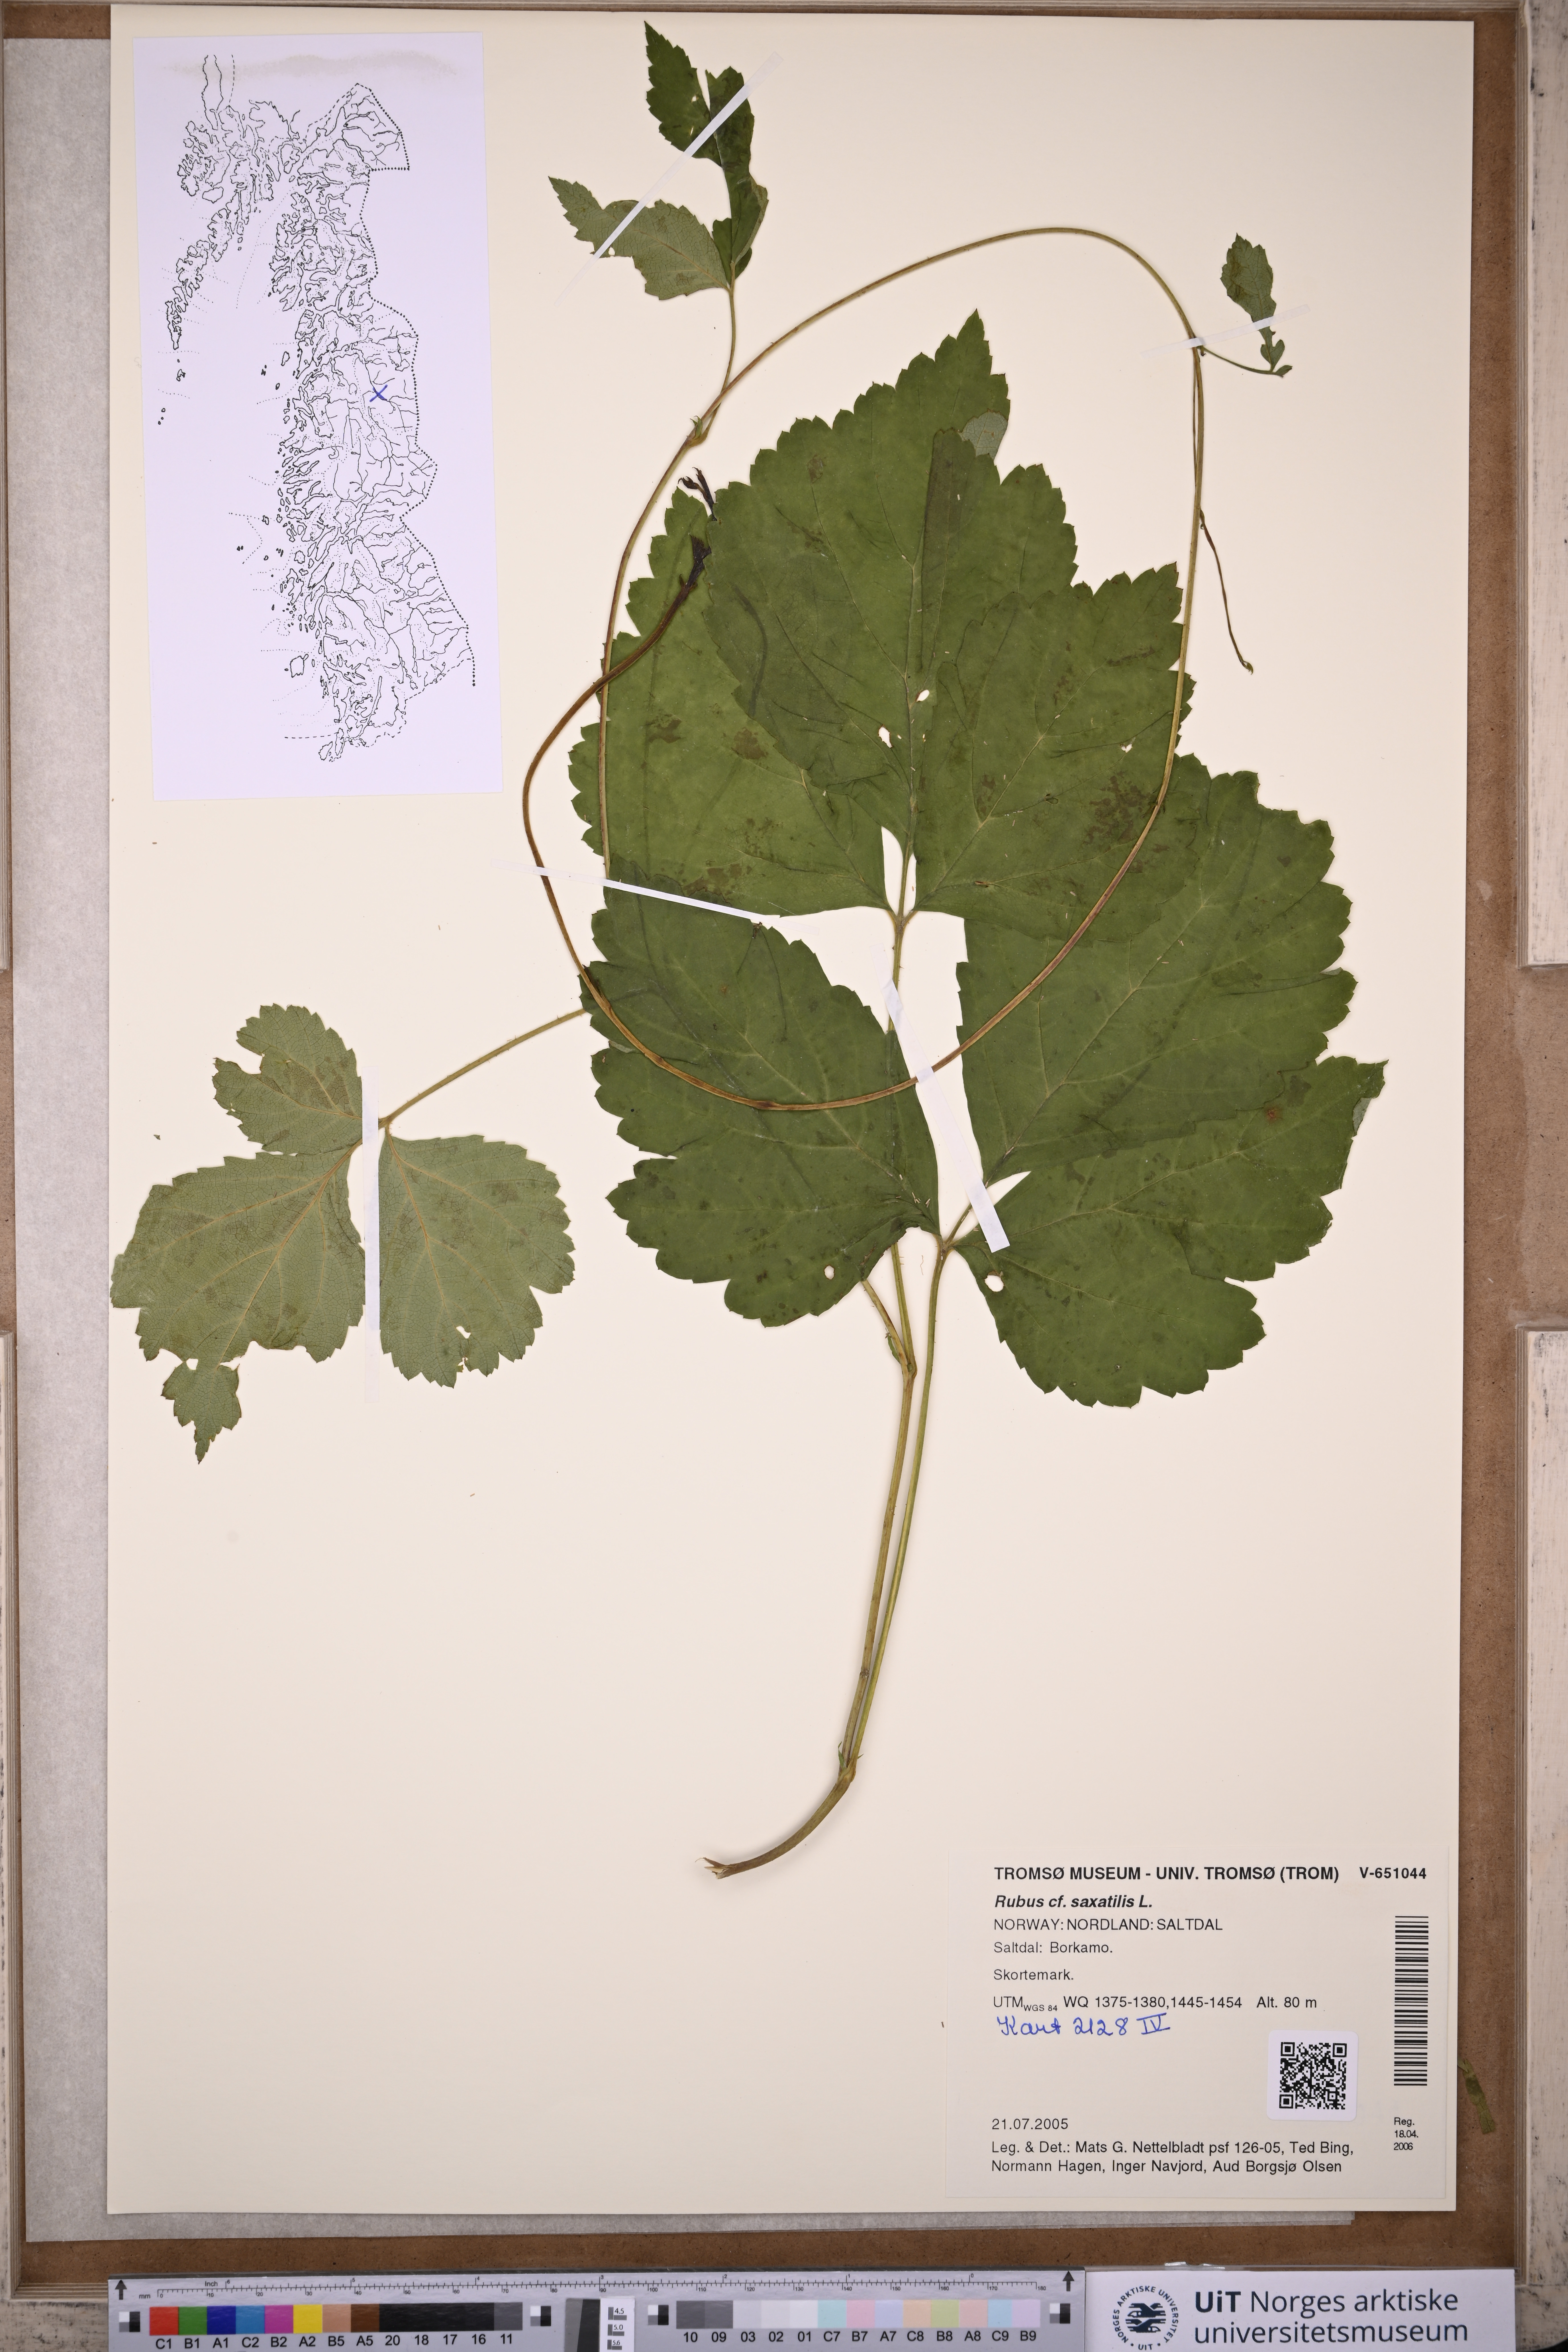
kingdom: Plantae
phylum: Tracheophyta
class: Magnoliopsida
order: Rosales
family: Rosaceae
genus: Rubus
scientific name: Rubus saxatilis
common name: Stone bramble
